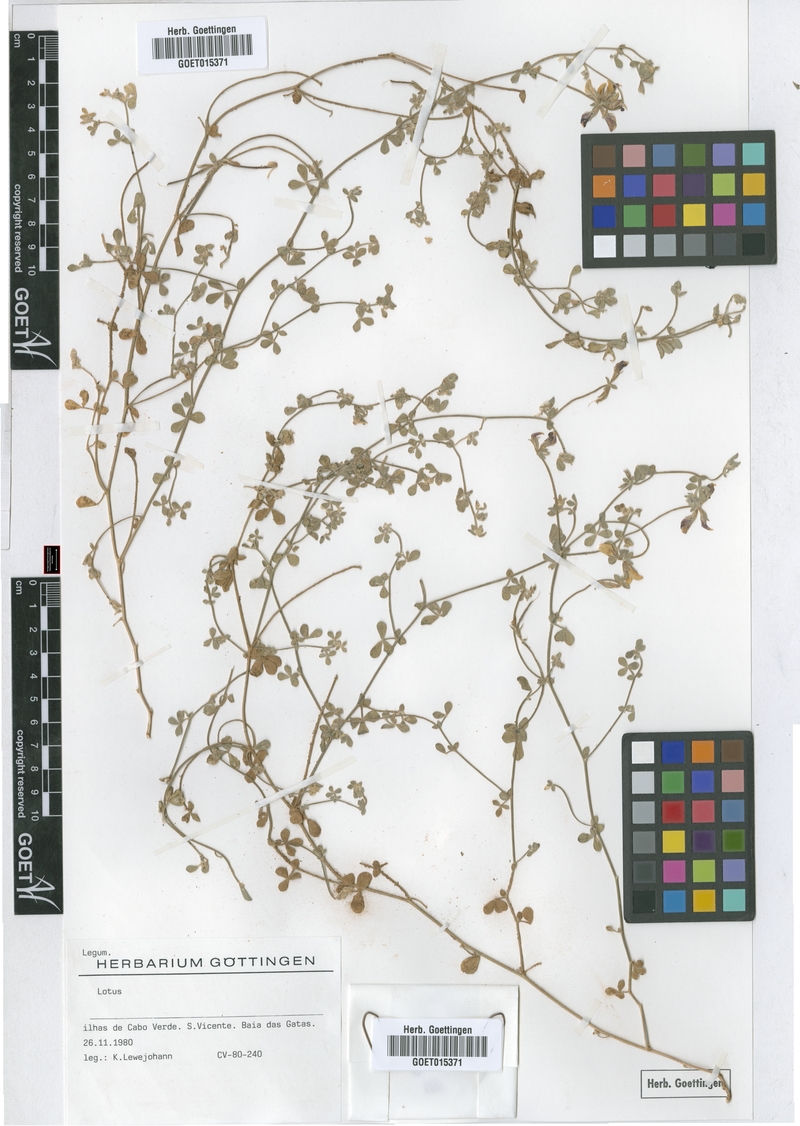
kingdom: Plantae
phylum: Tracheophyta
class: Magnoliopsida
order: Fabales
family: Fabaceae
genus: Lotus
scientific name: Lotus
